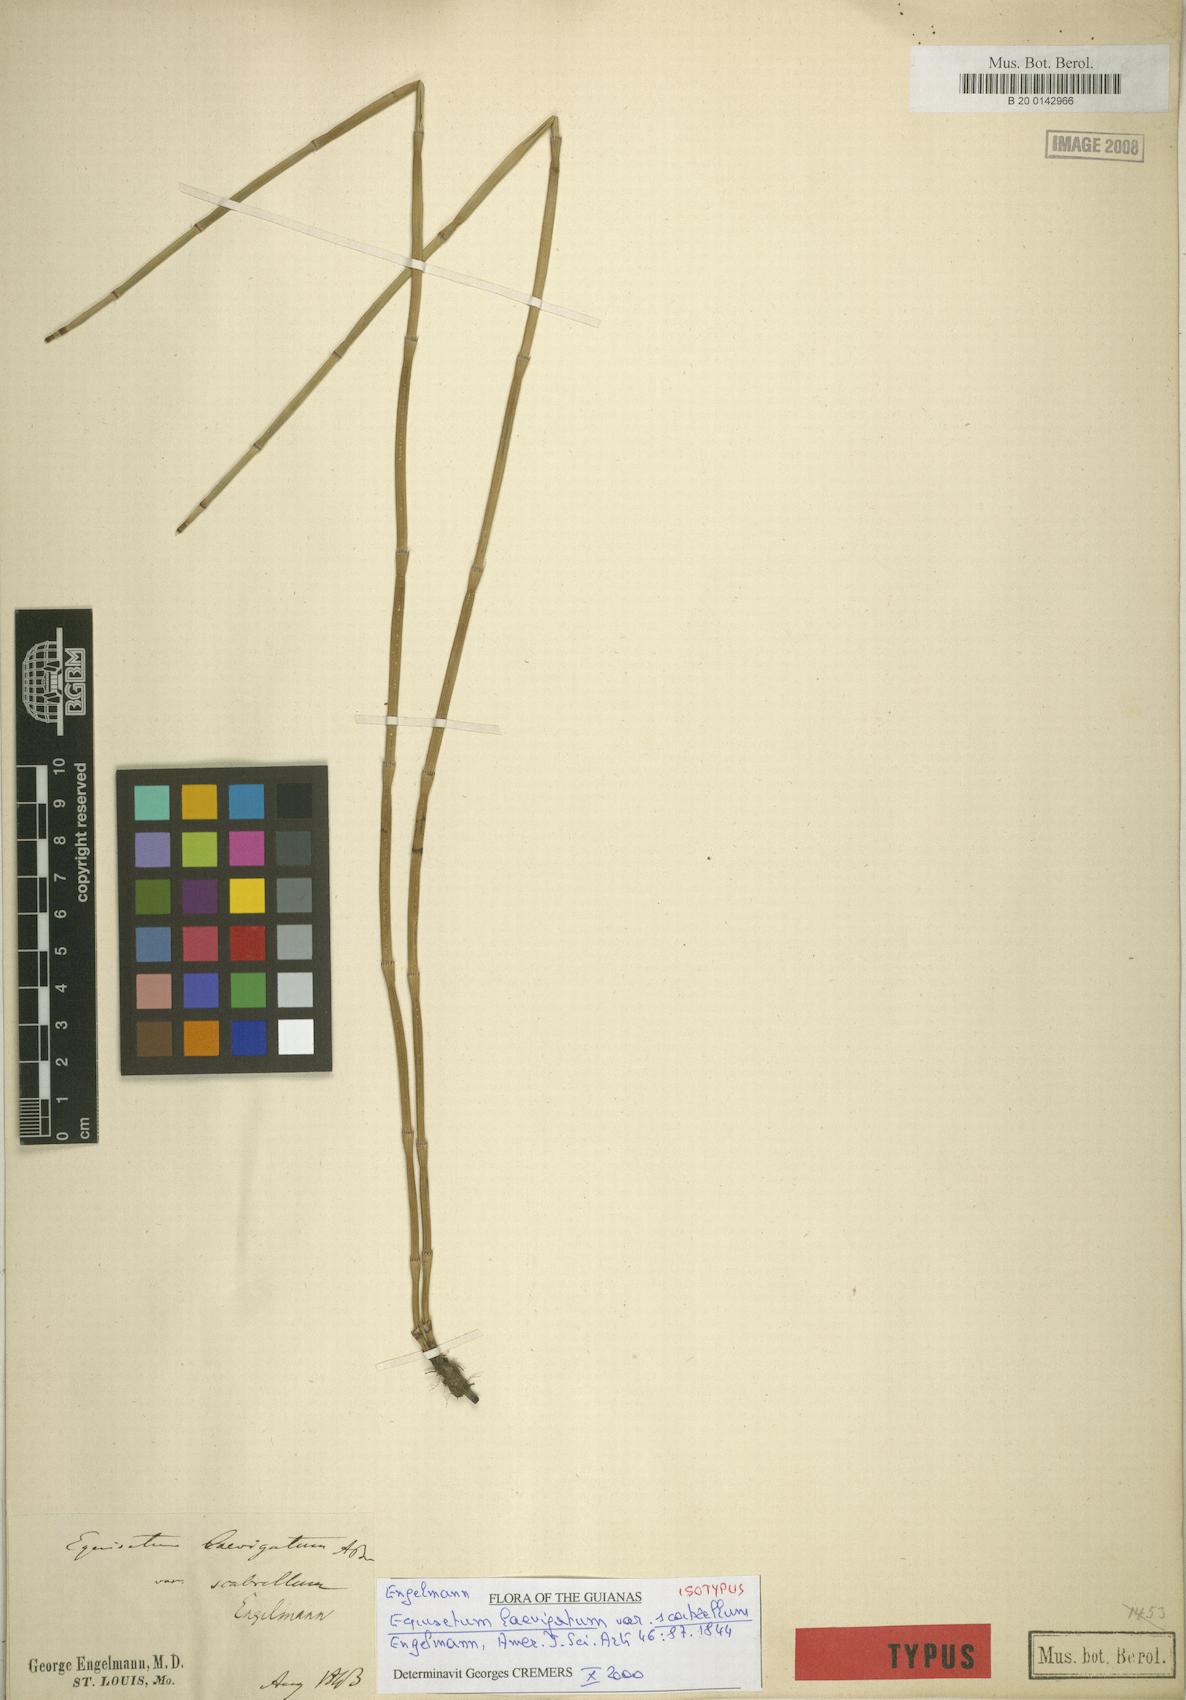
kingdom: Plantae
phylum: Tracheophyta
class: Polypodiopsida
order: Equisetales
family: Equisetaceae
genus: Equisetum
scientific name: Equisetum laevigatum
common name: Smooth scouring-rush
